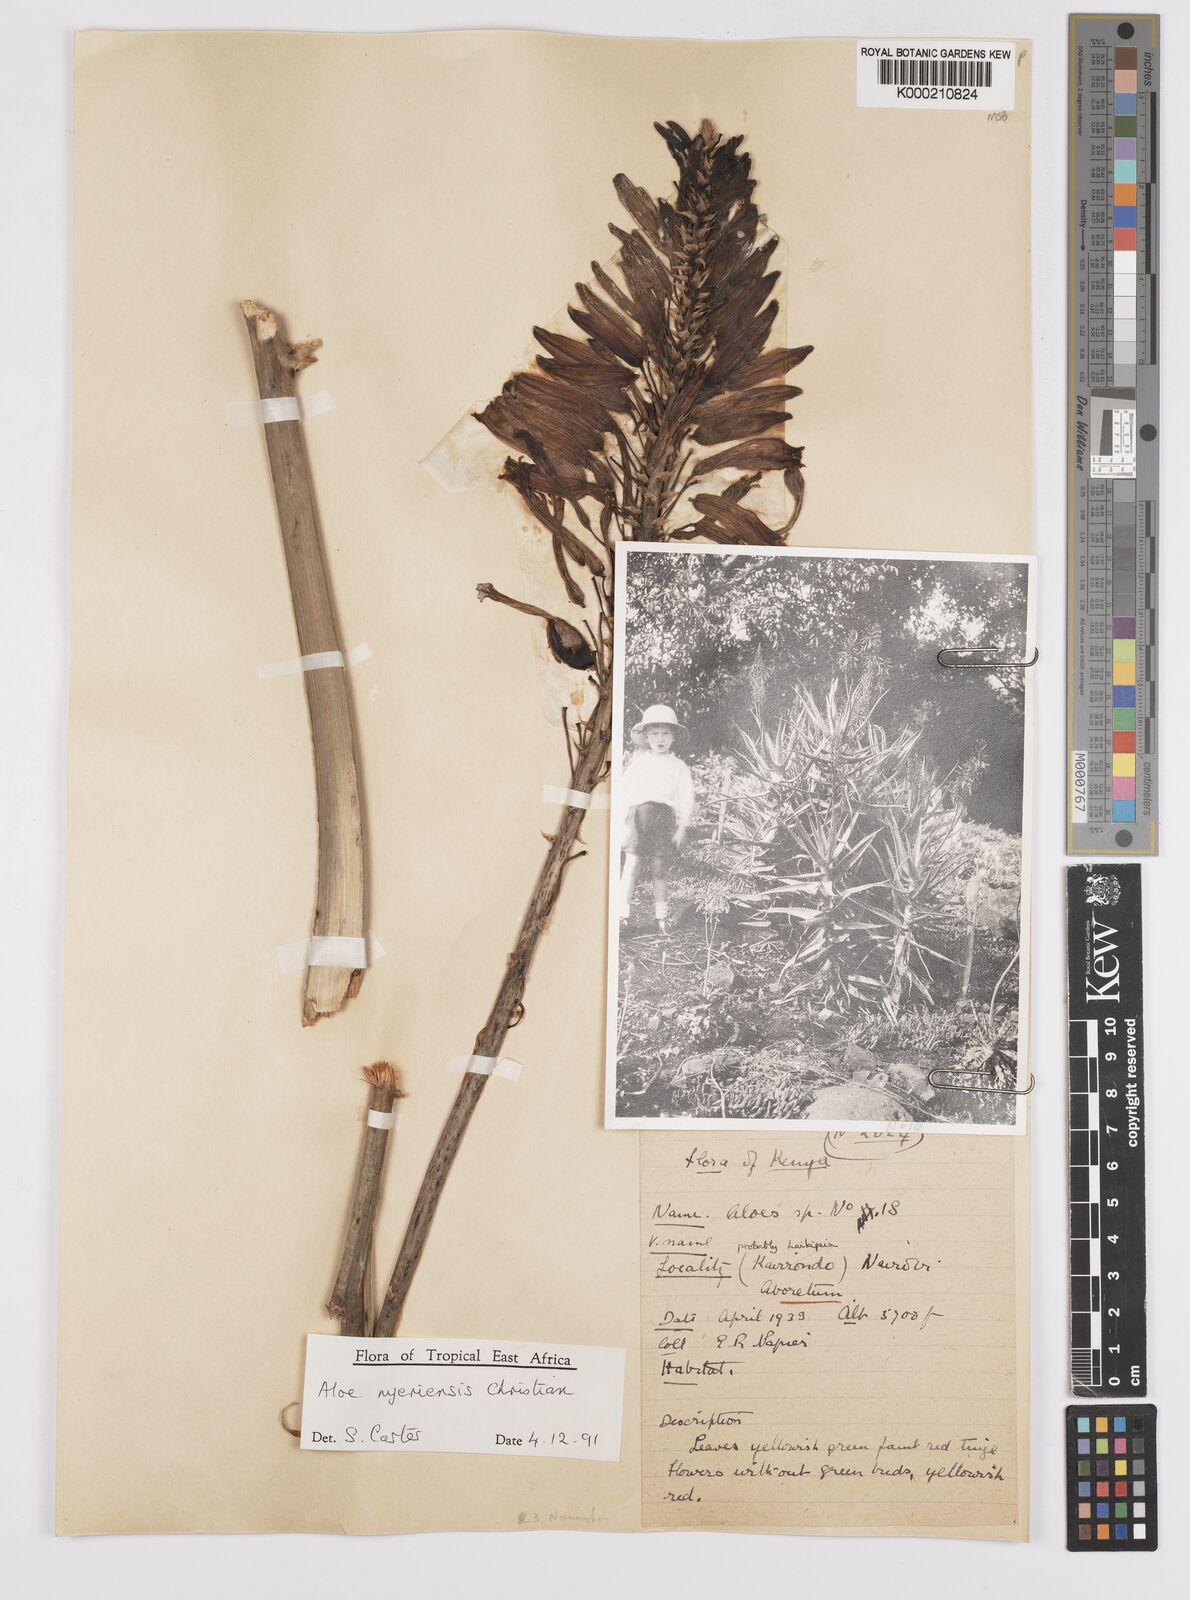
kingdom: Plantae
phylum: Tracheophyta
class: Liliopsida
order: Asparagales
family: Asphodelaceae
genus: Aloe
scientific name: Aloe nyeriensis
